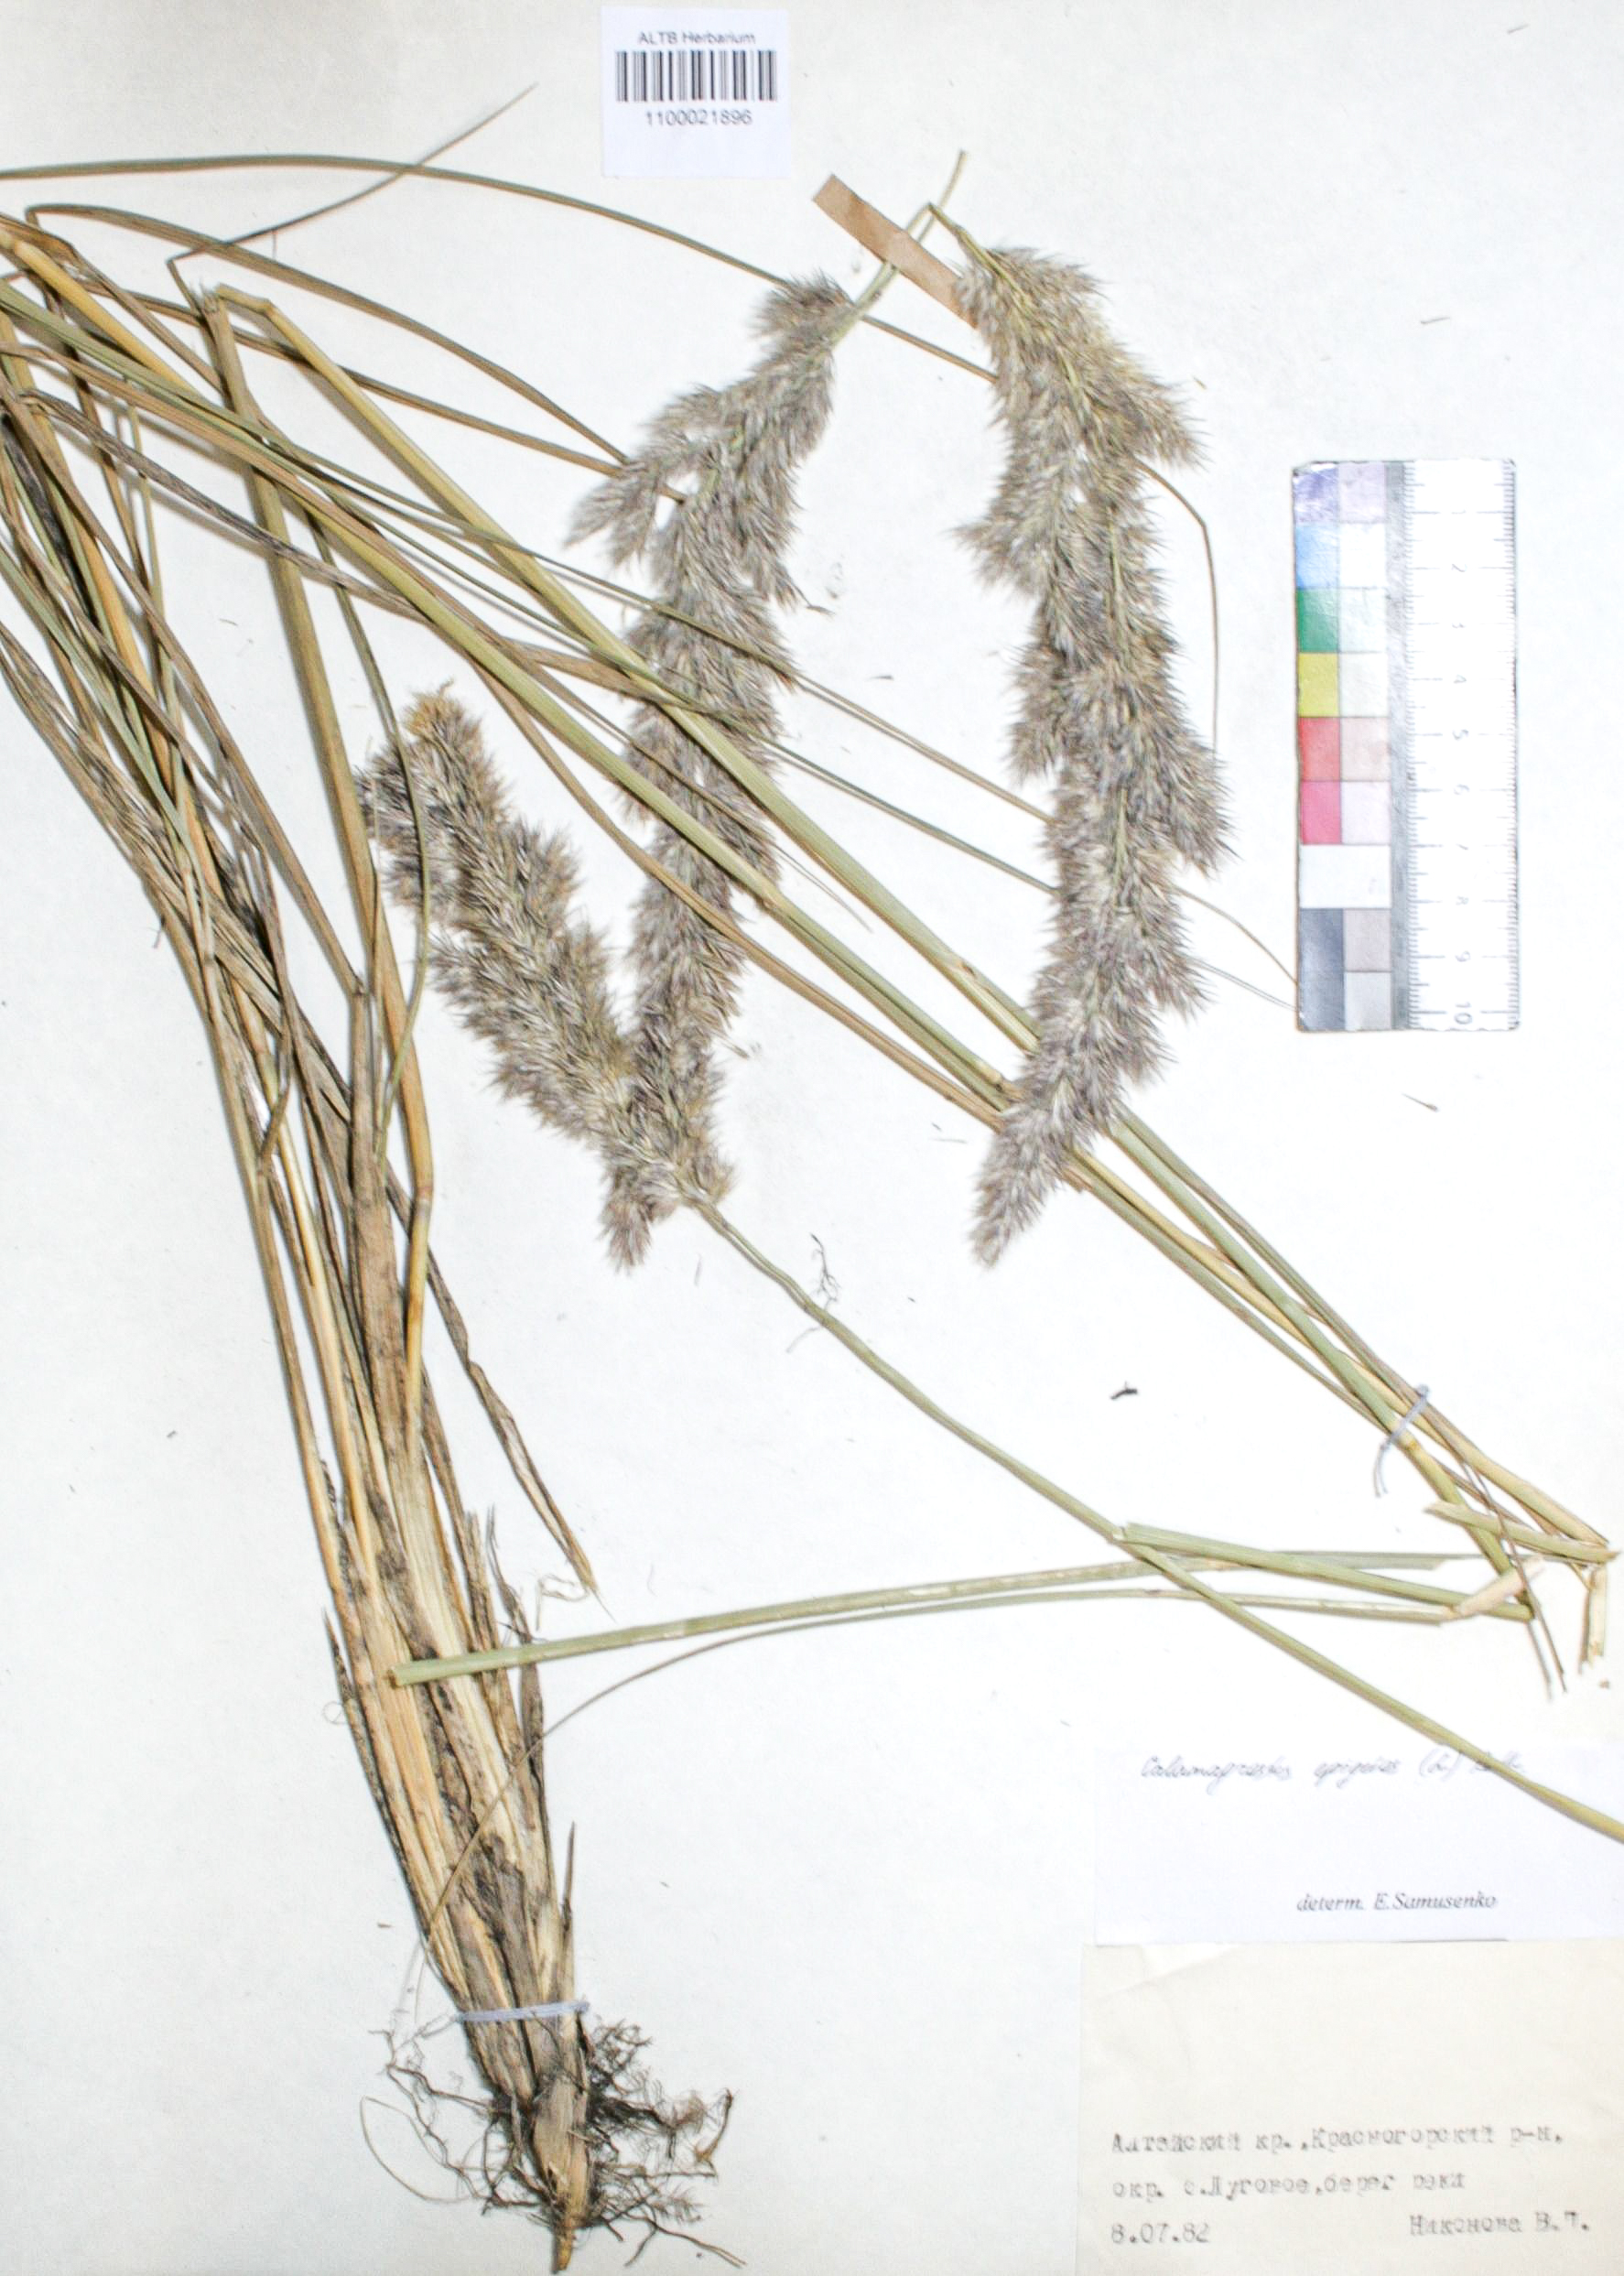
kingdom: Plantae
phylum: Tracheophyta
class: Liliopsida
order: Poales
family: Poaceae
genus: Calamagrostis
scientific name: Calamagrostis epigejos
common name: Wood small-reed
